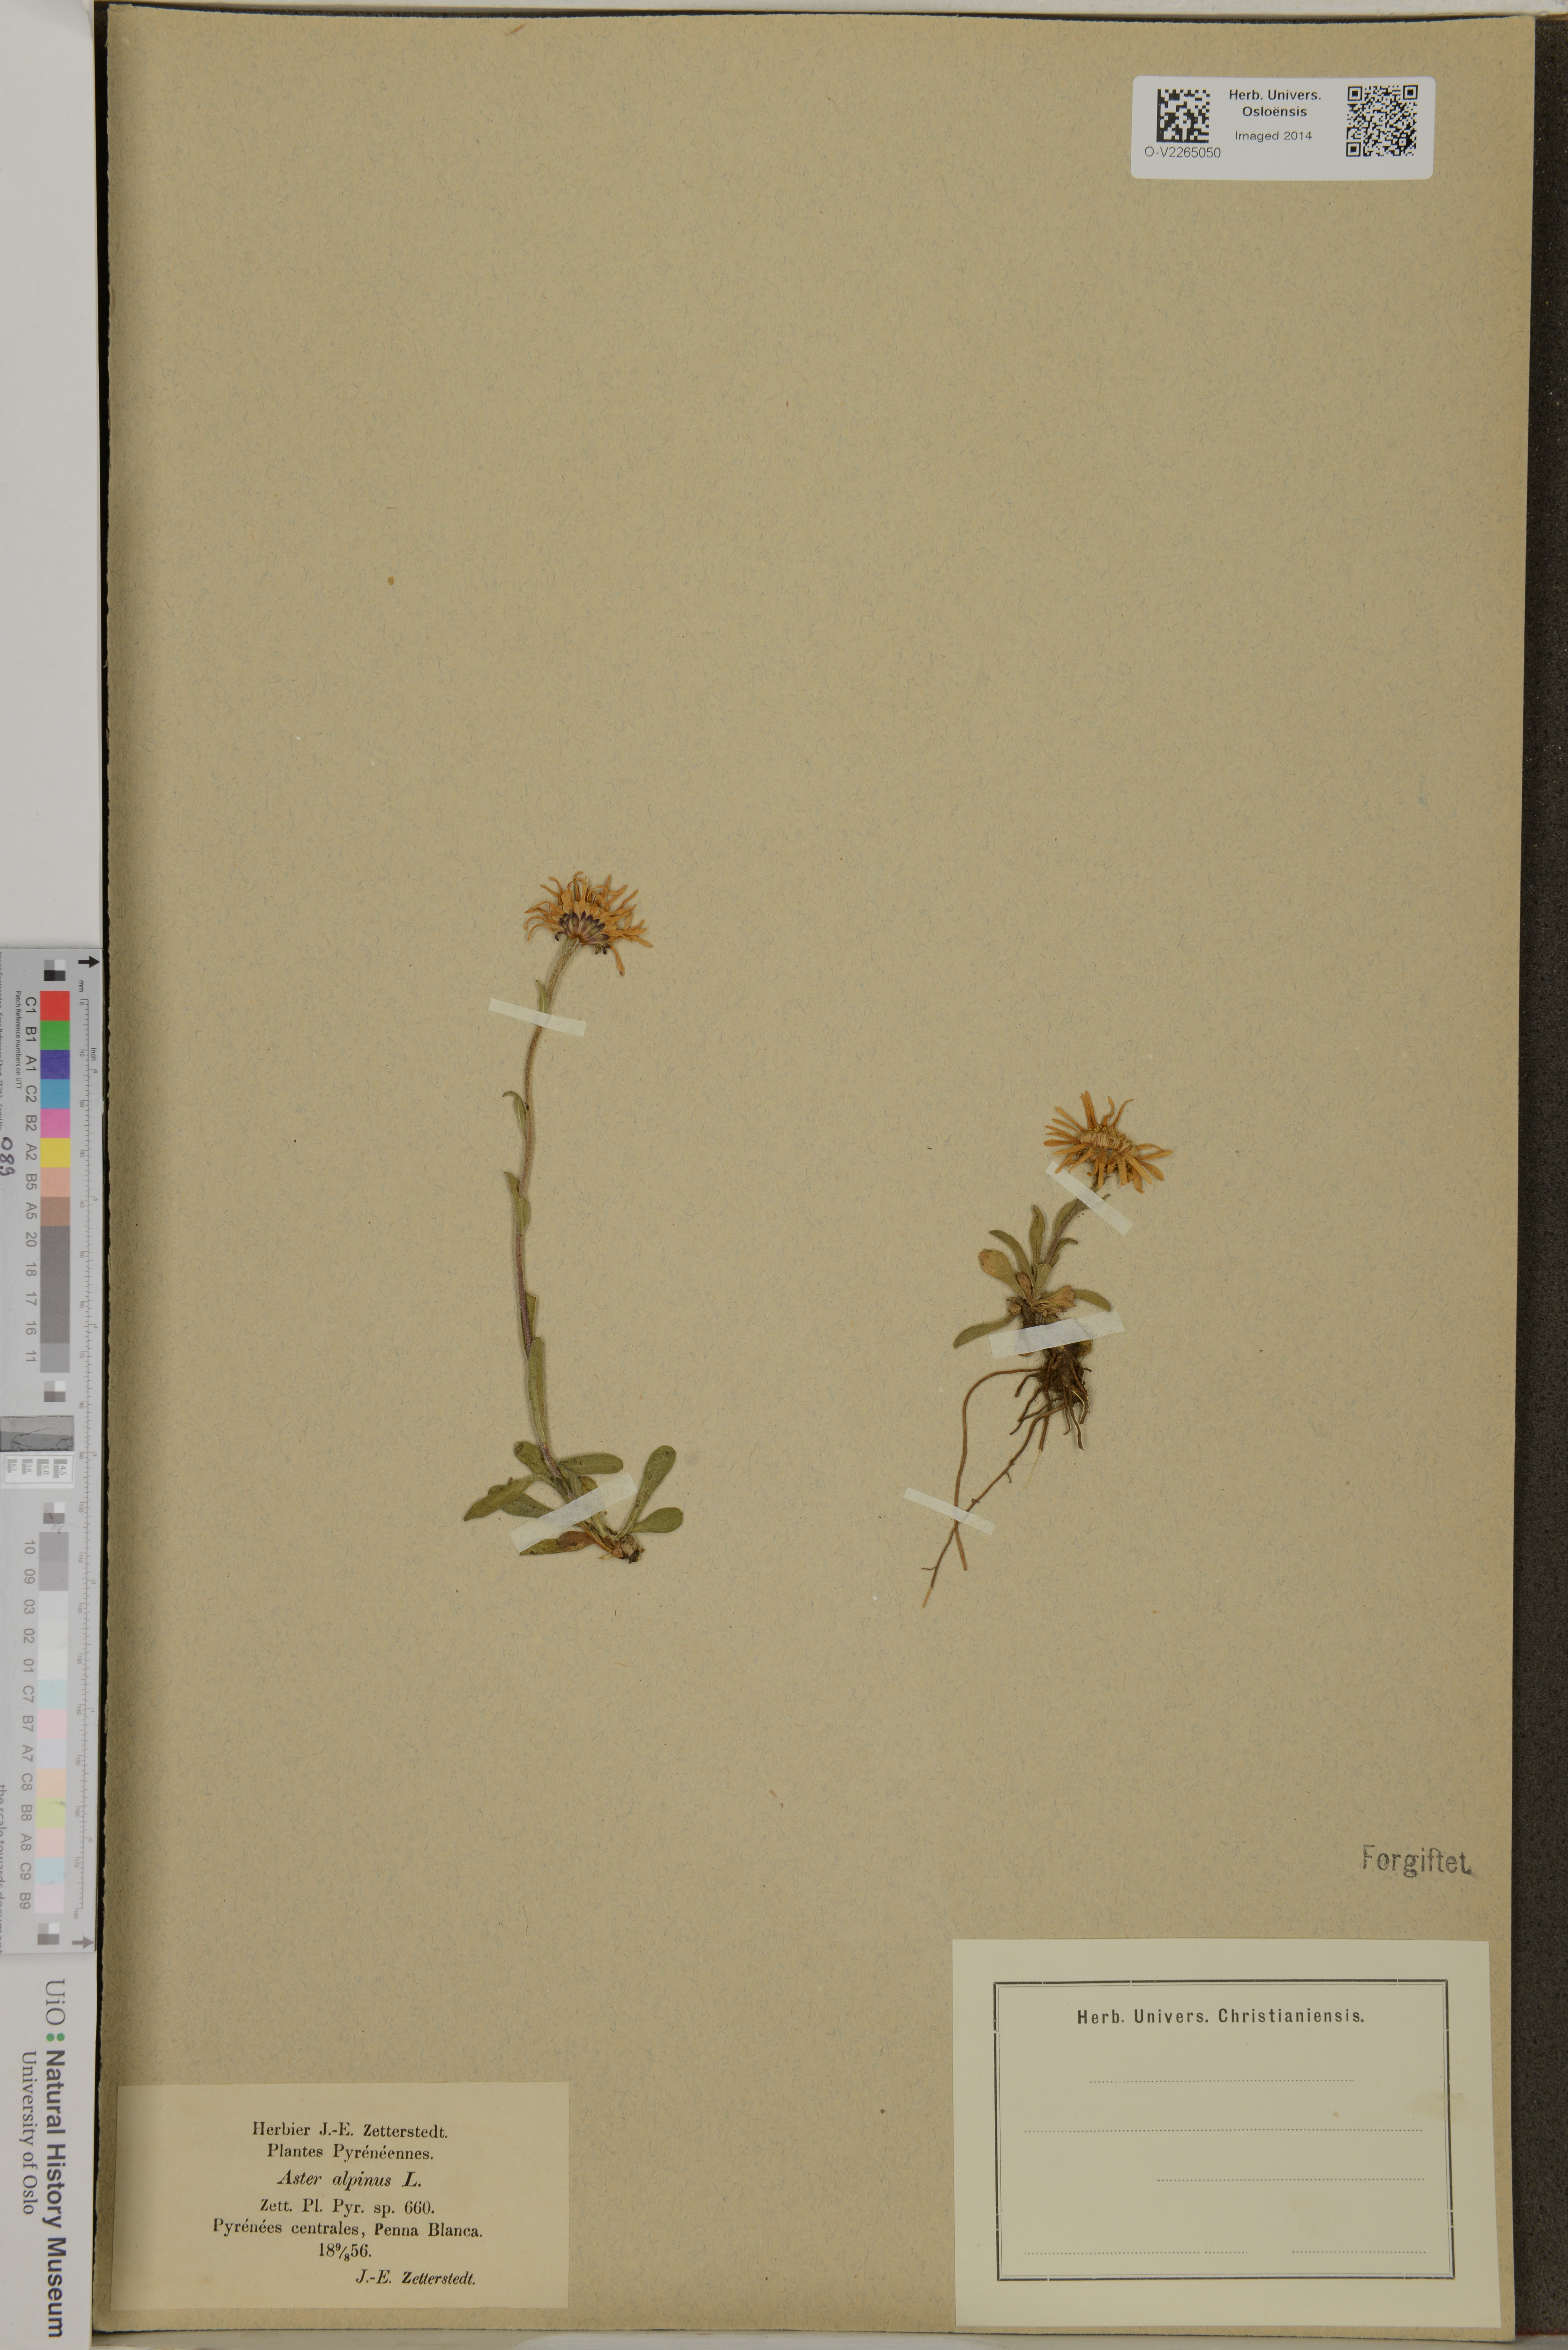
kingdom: Plantae
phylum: Tracheophyta
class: Magnoliopsida
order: Asterales
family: Asteraceae
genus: Aster
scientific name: Aster alpinus
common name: Alpine aster
